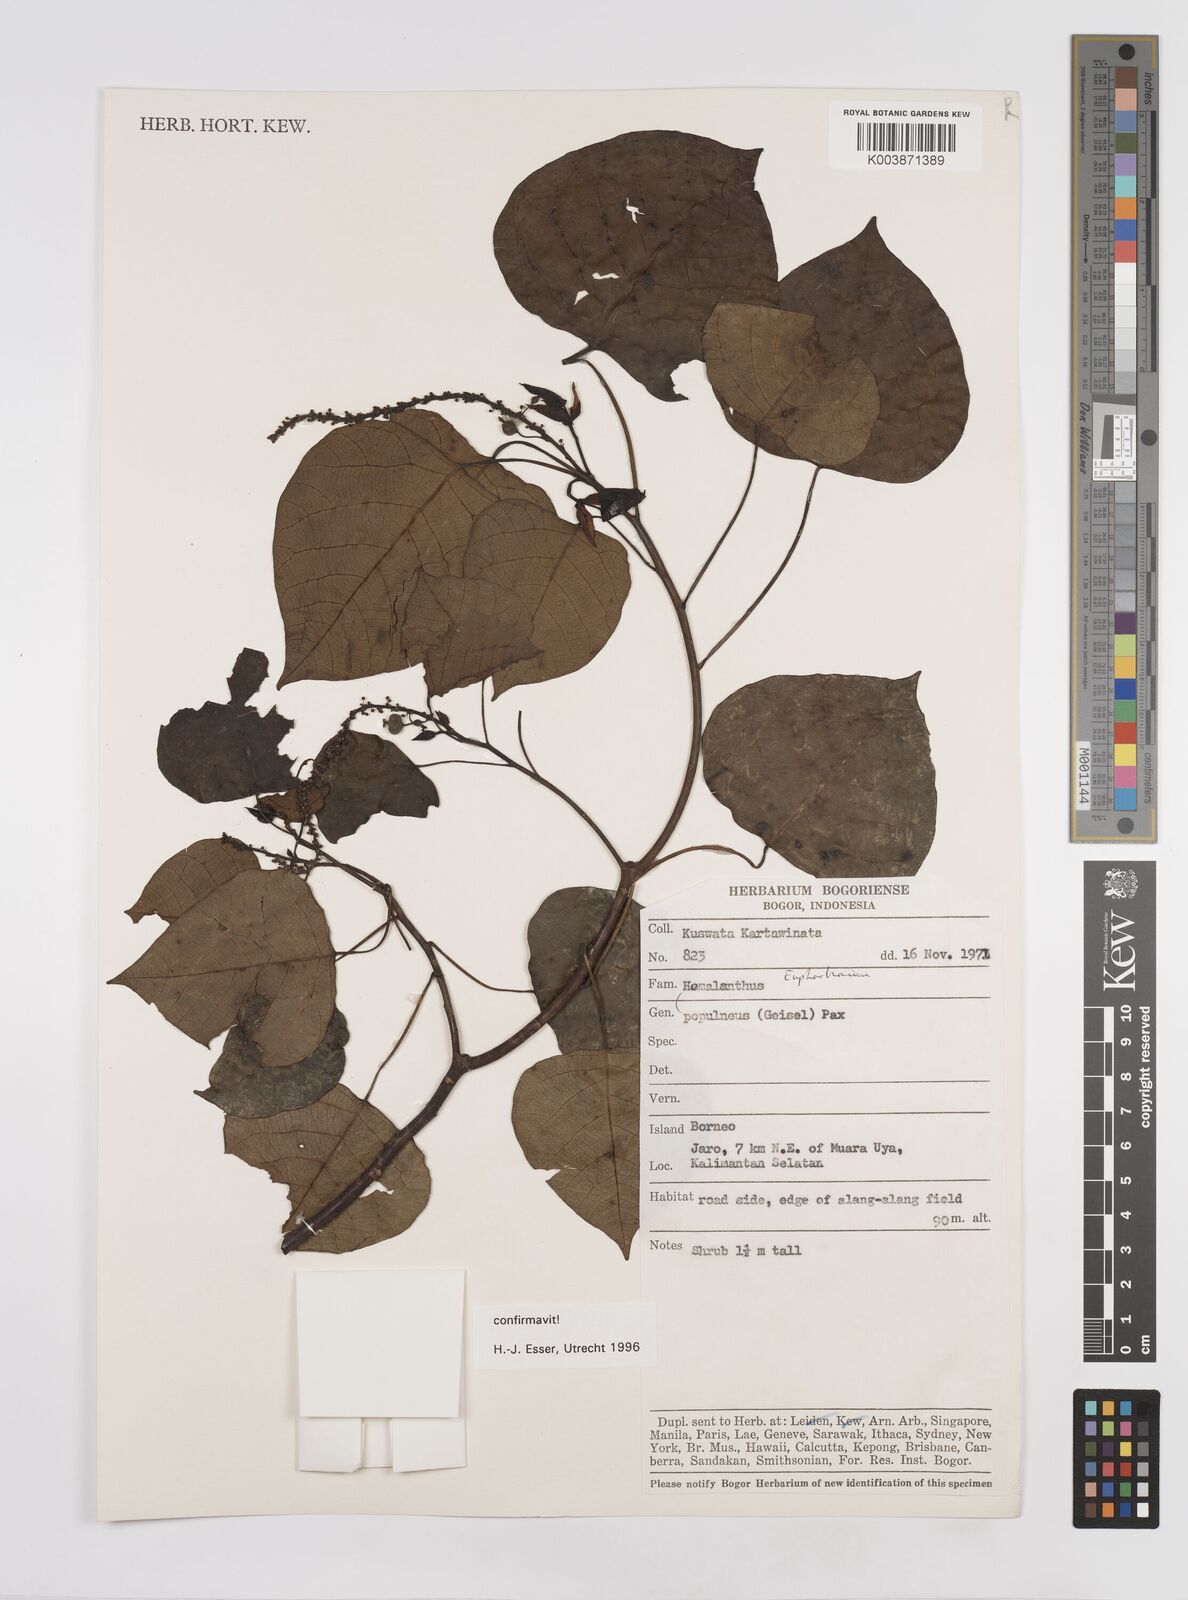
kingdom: Plantae
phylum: Tracheophyta
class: Magnoliopsida
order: Malpighiales
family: Euphorbiaceae
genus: Homalanthus
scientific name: Homalanthus populneus
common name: Spurge
